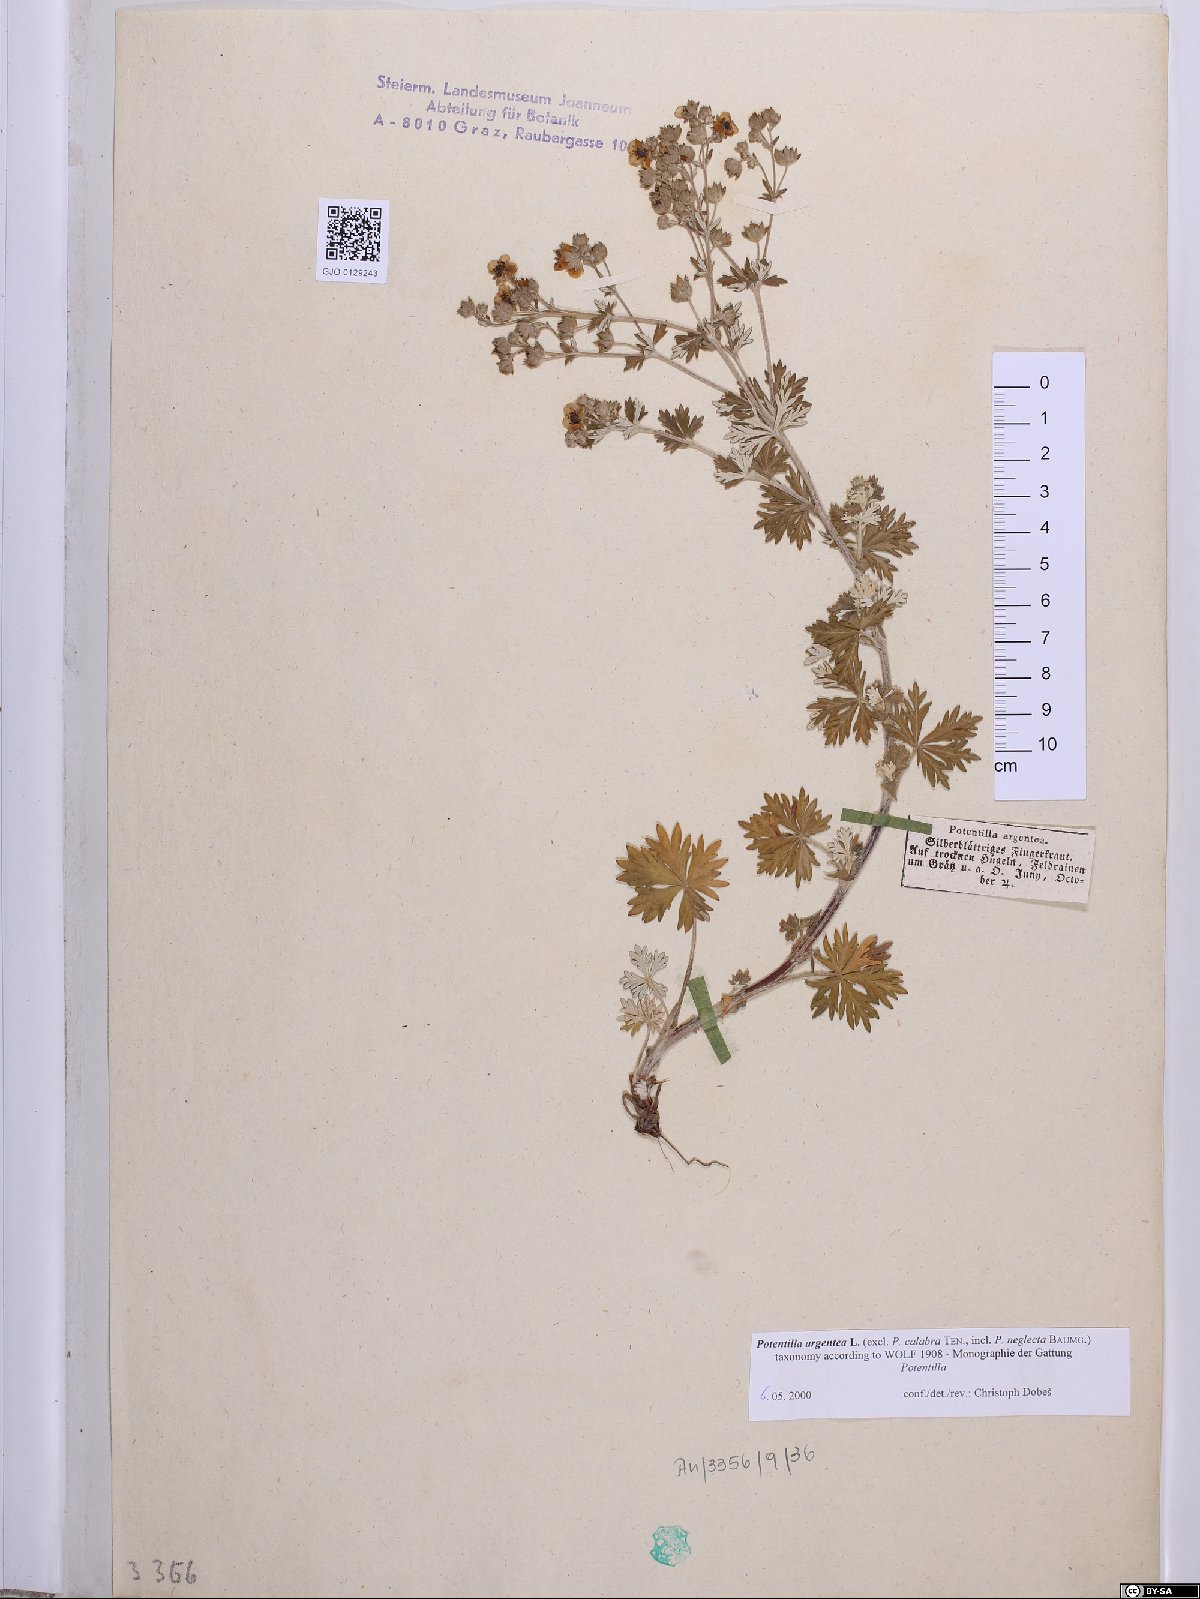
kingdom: Plantae
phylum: Tracheophyta
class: Magnoliopsida
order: Rosales
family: Rosaceae
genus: Potentilla
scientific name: Potentilla argentea
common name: Hoary cinquefoil
